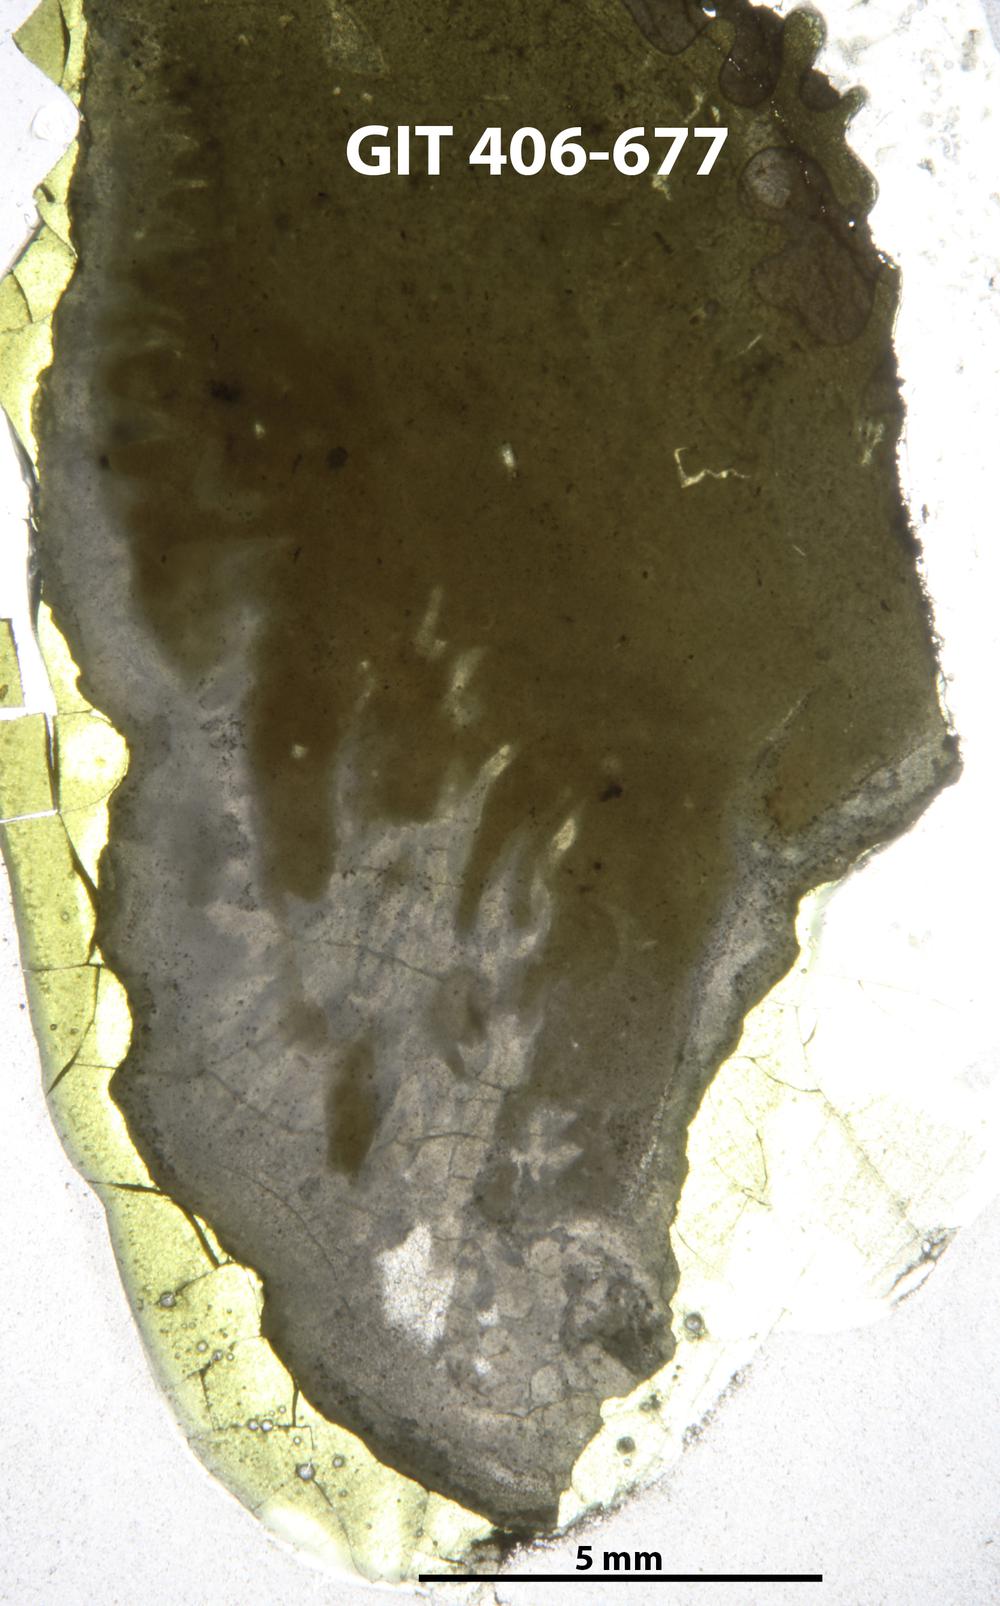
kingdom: Animalia
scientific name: Animalia
